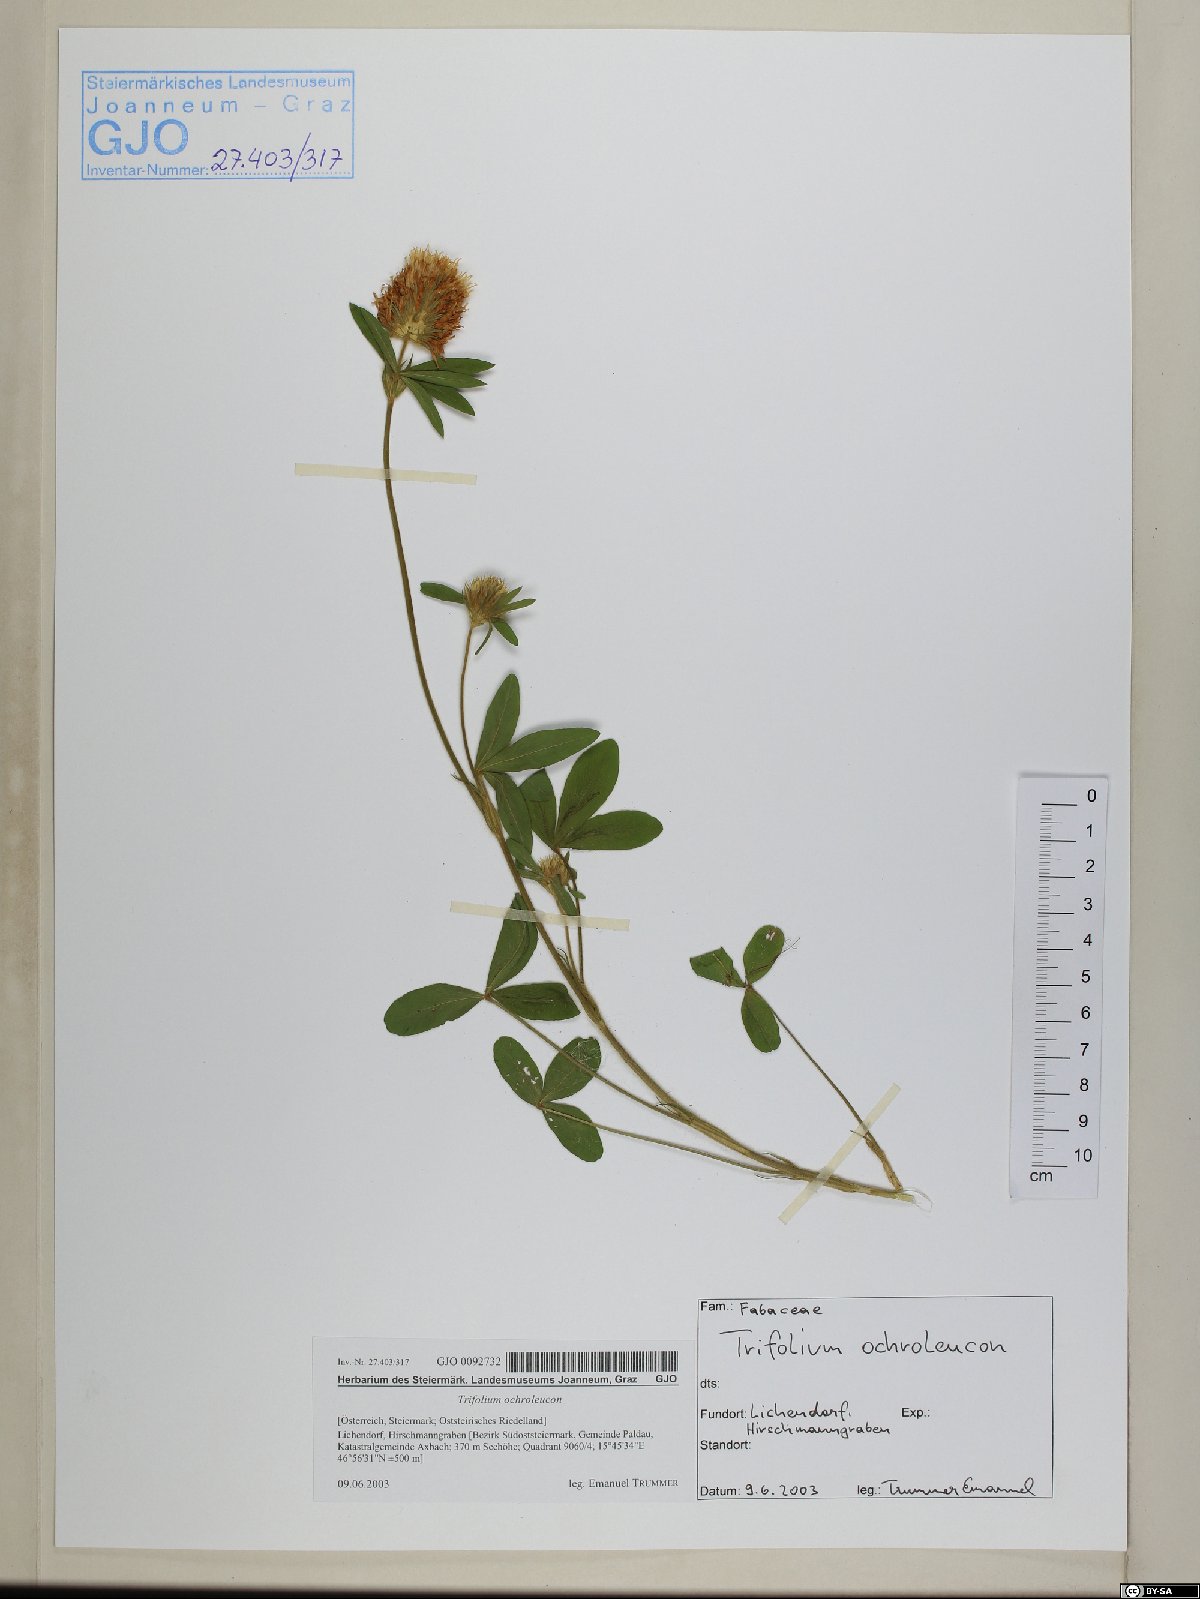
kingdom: Plantae
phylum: Tracheophyta
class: Magnoliopsida
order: Fabales
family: Fabaceae
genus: Trifolium
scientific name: Trifolium ochroleucon
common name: Sulphur clover
